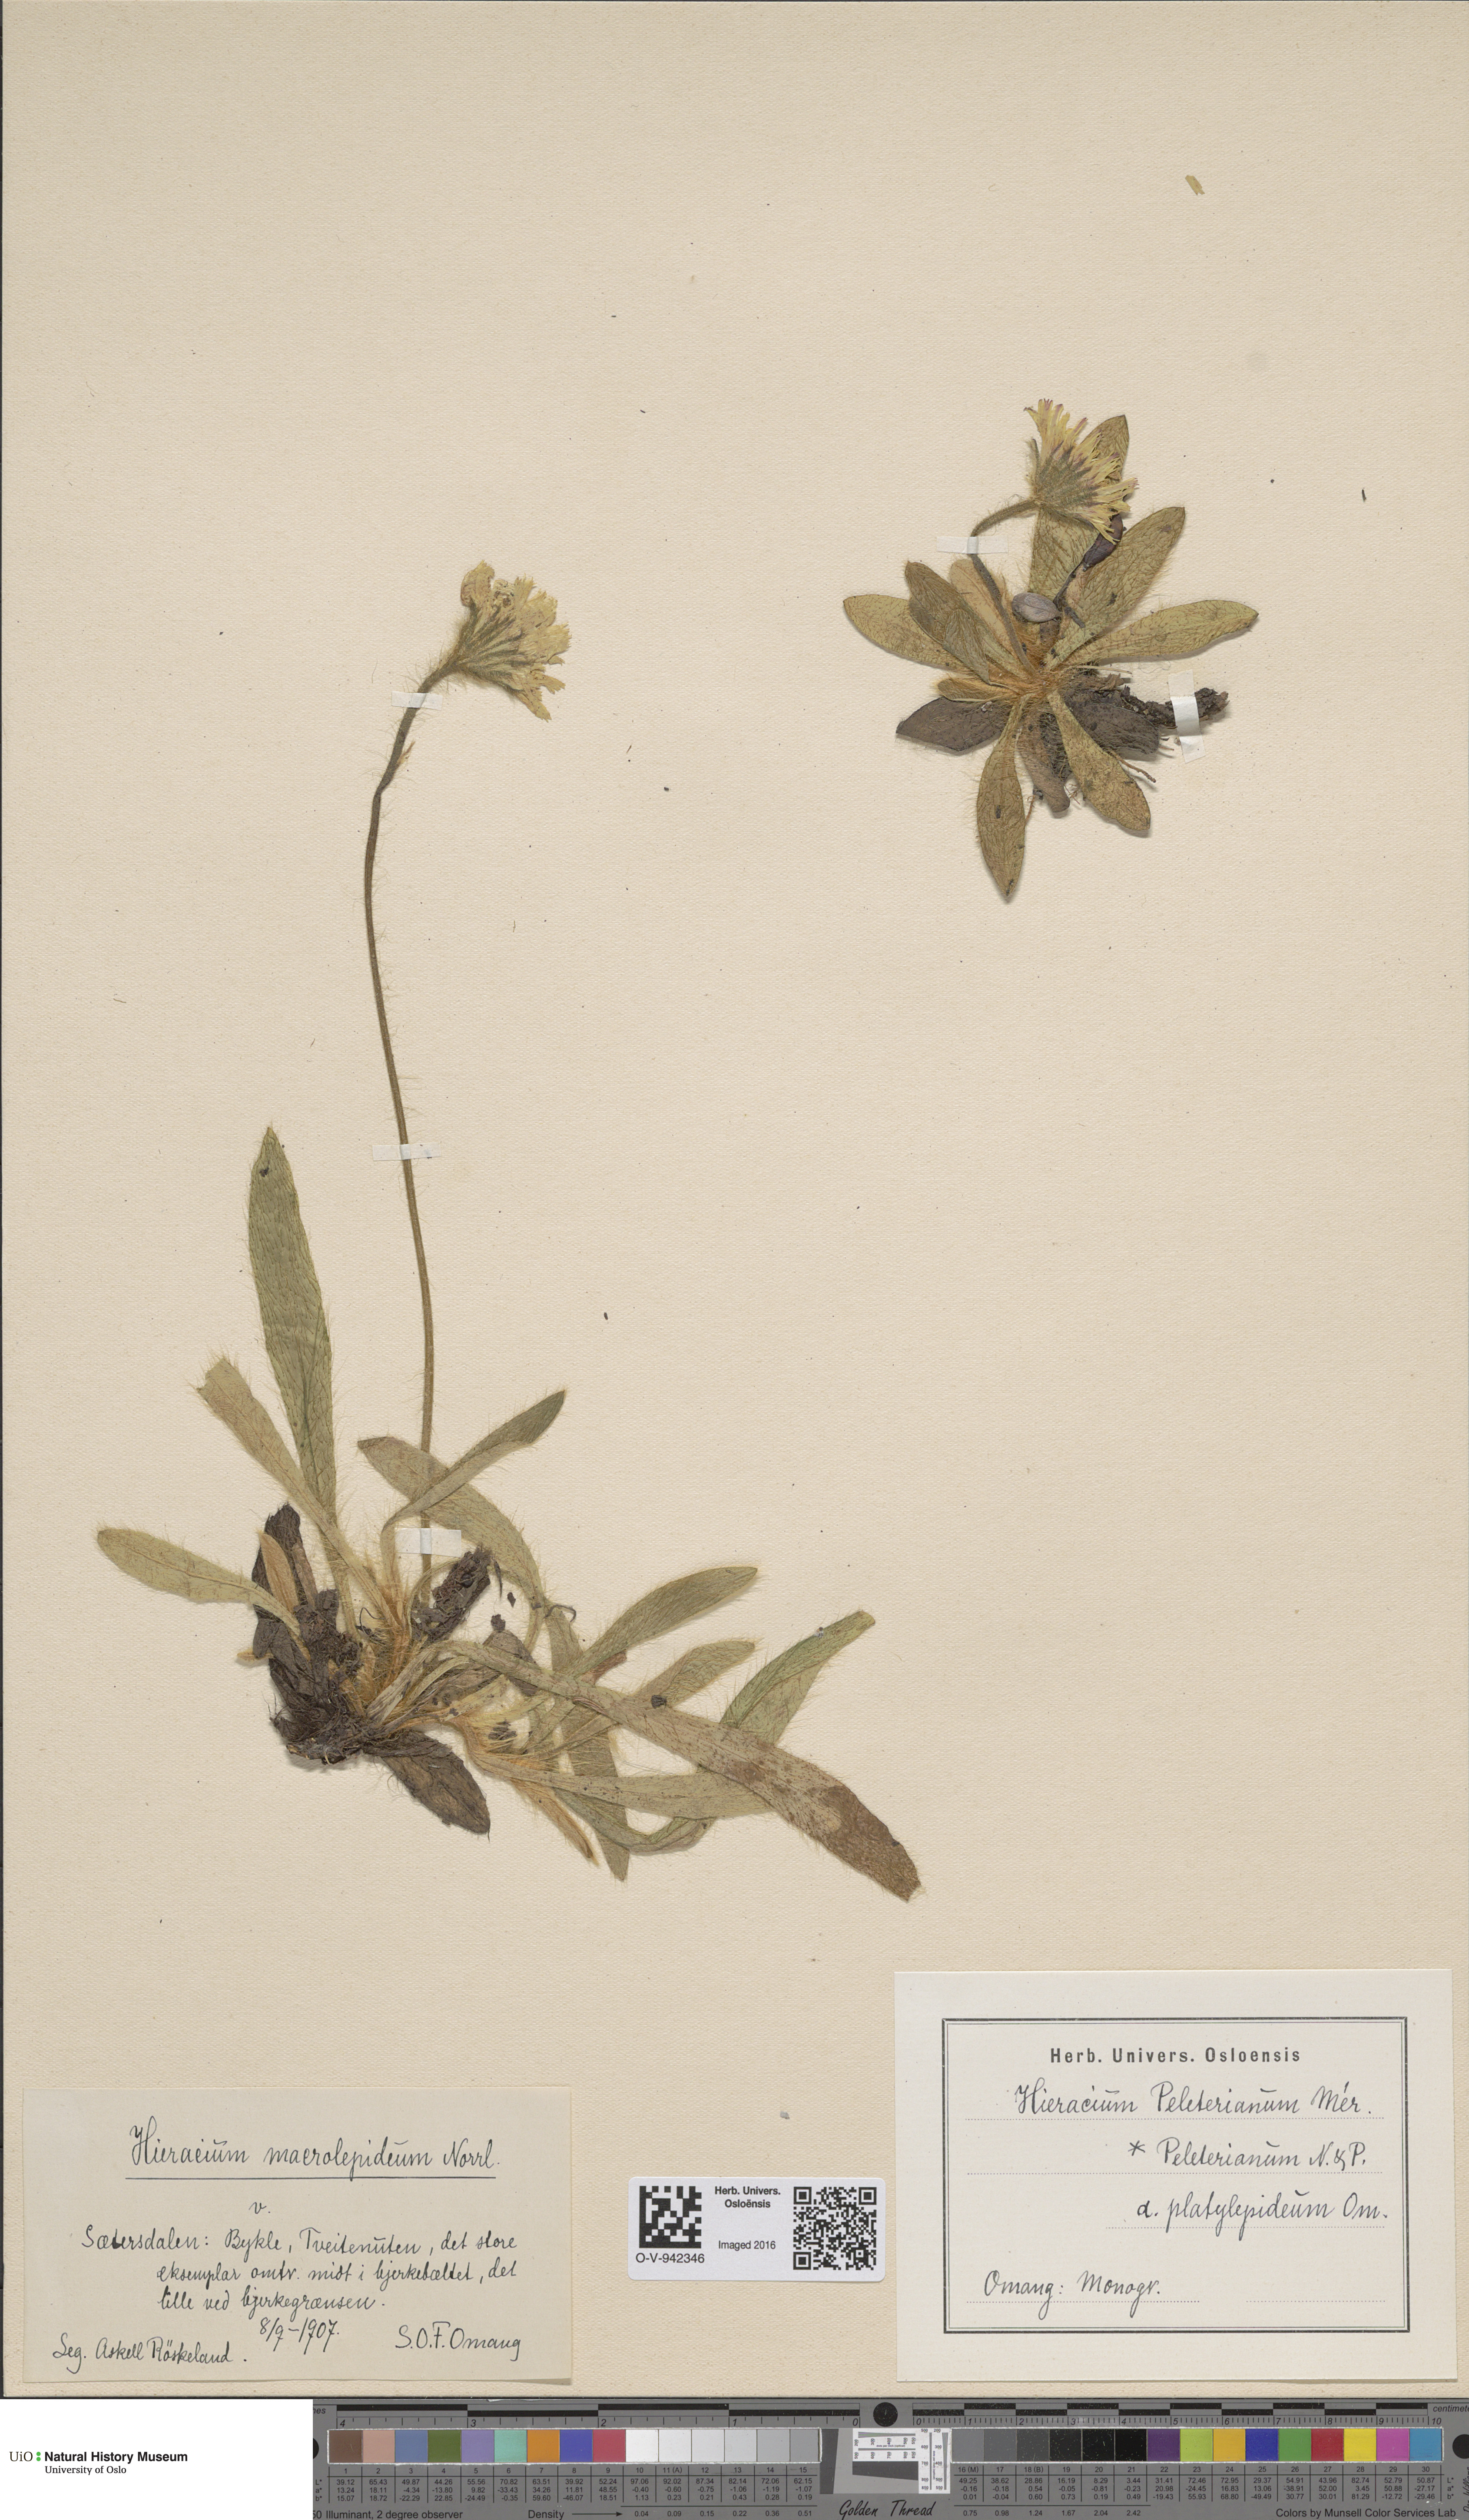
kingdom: Plantae
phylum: Tracheophyta
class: Magnoliopsida
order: Asterales
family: Asteraceae
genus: Pilosella
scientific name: Pilosella peleteriana
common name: Shaggy mouse-ear-hawkweed
